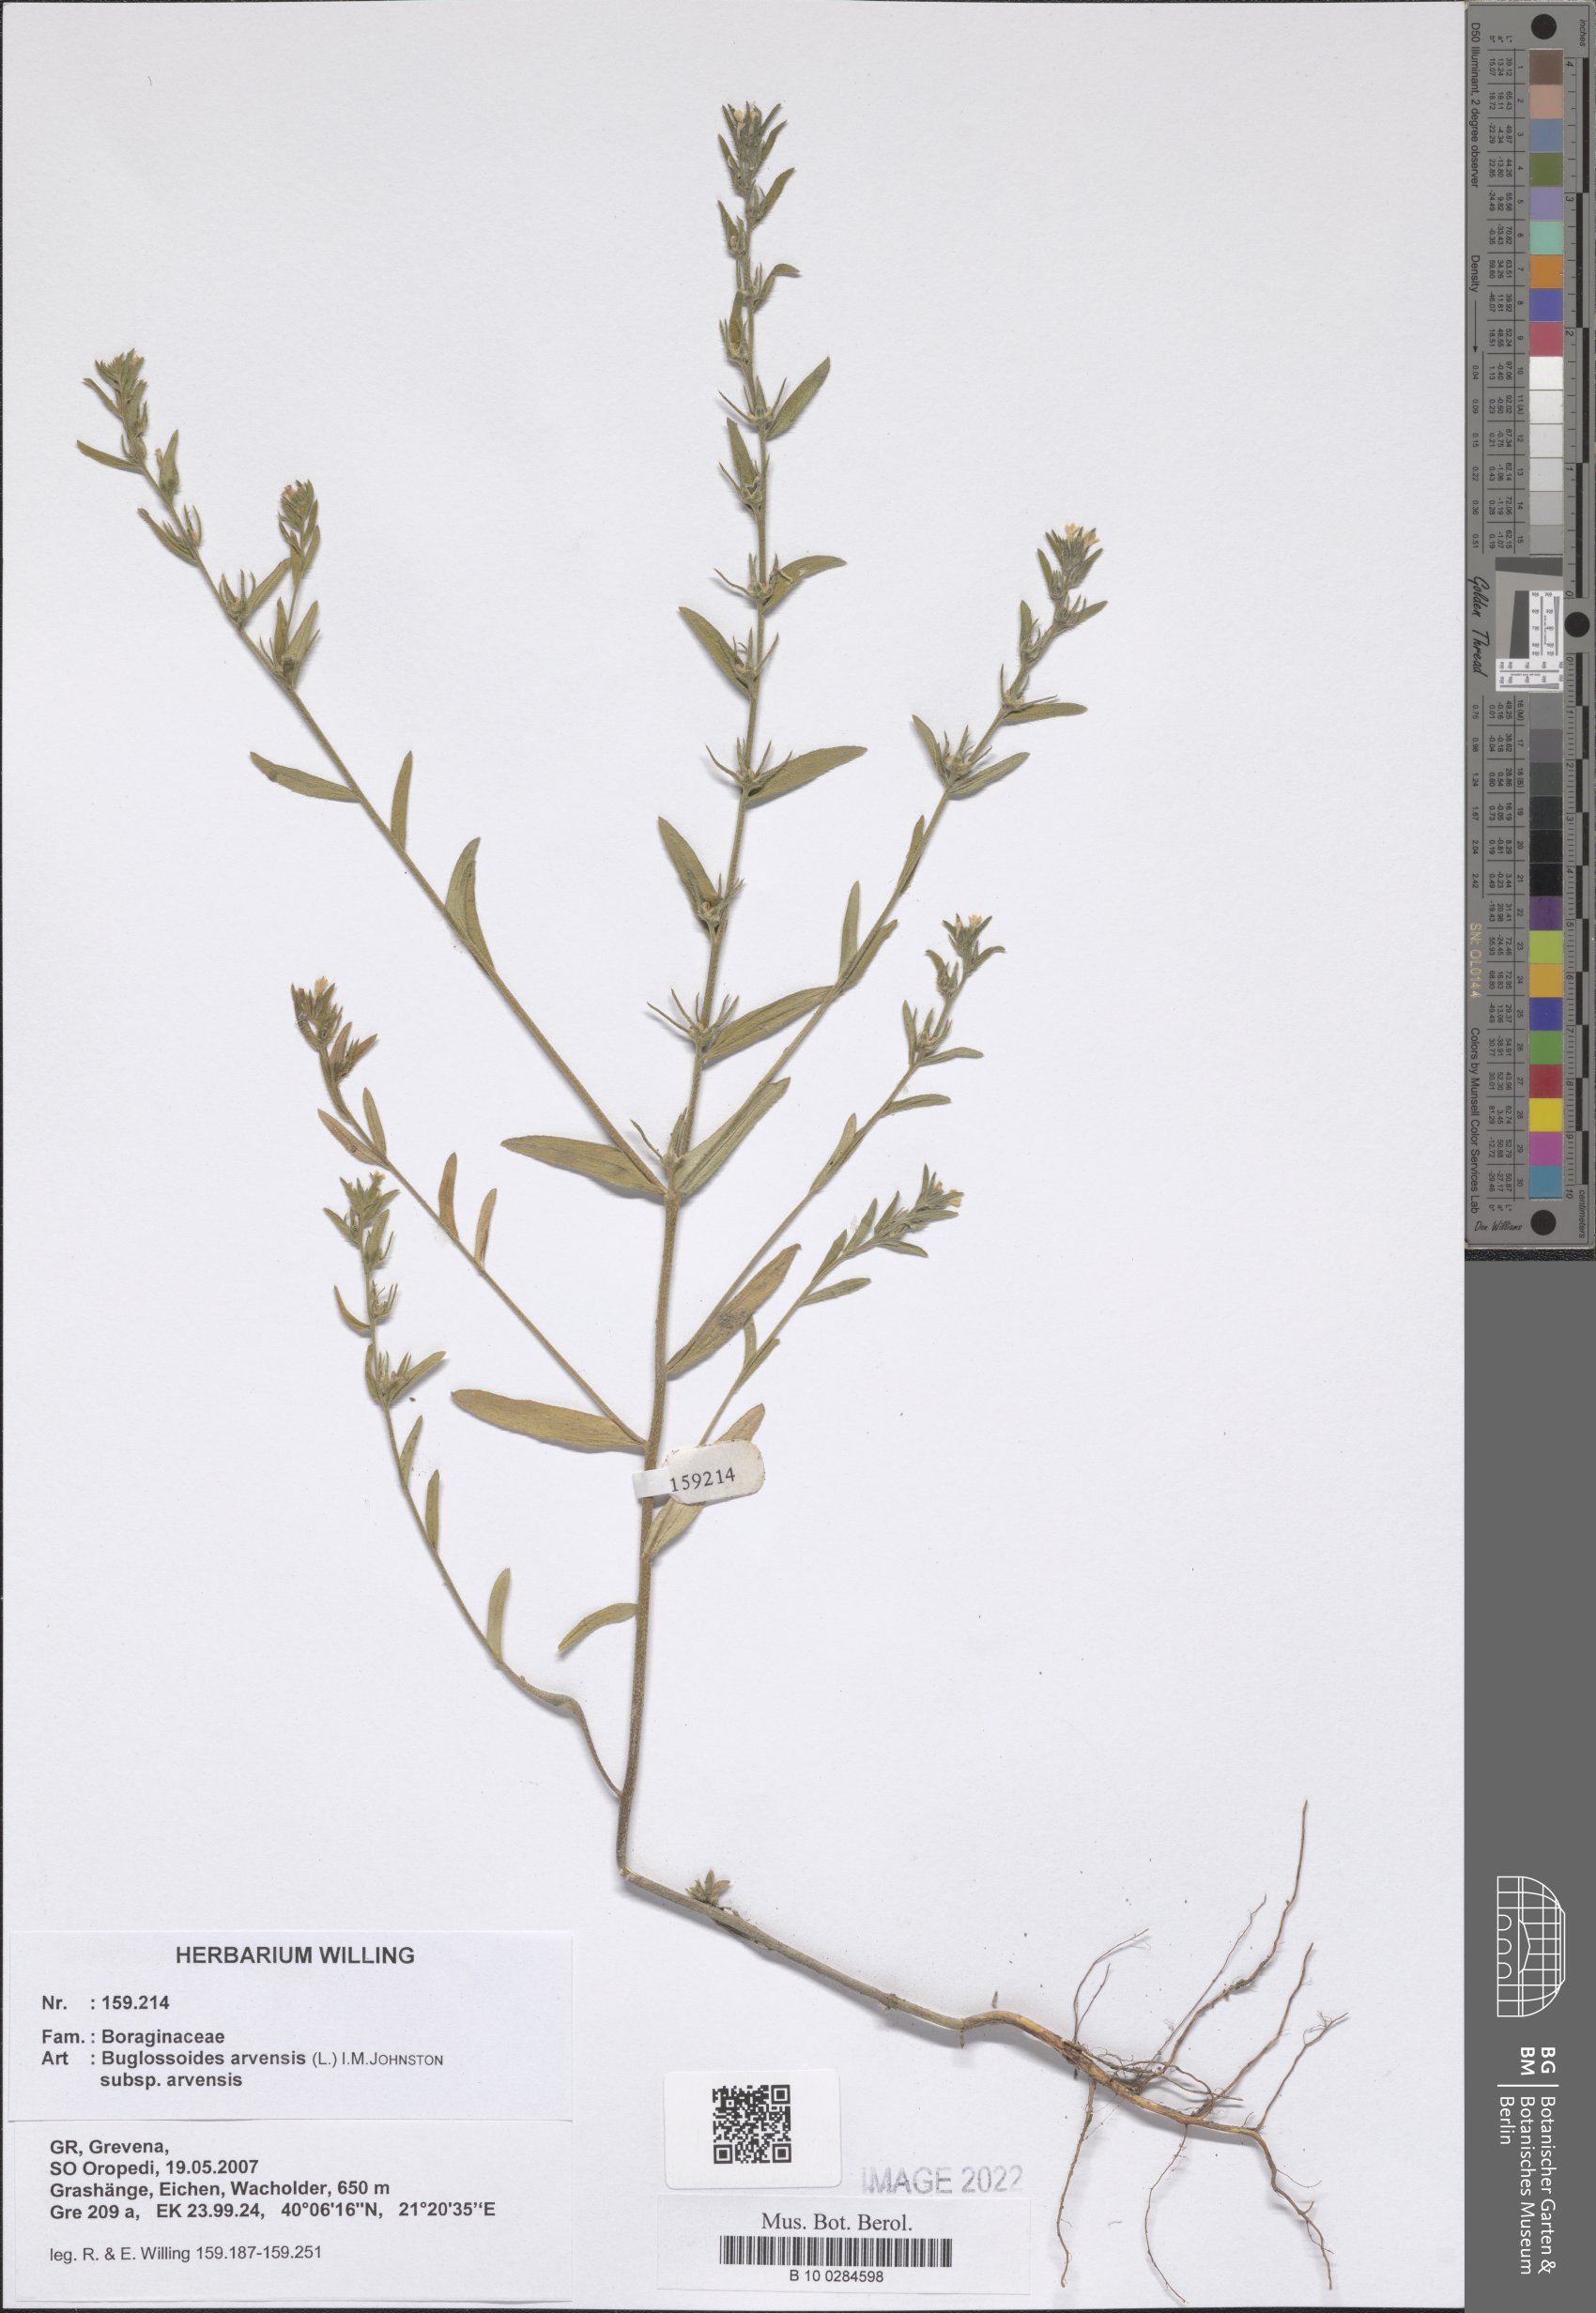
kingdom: Plantae
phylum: Tracheophyta
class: Magnoliopsida
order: Boraginales
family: Boraginaceae
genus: Buglossoides
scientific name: Buglossoides arvensis
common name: Corn gromwell
